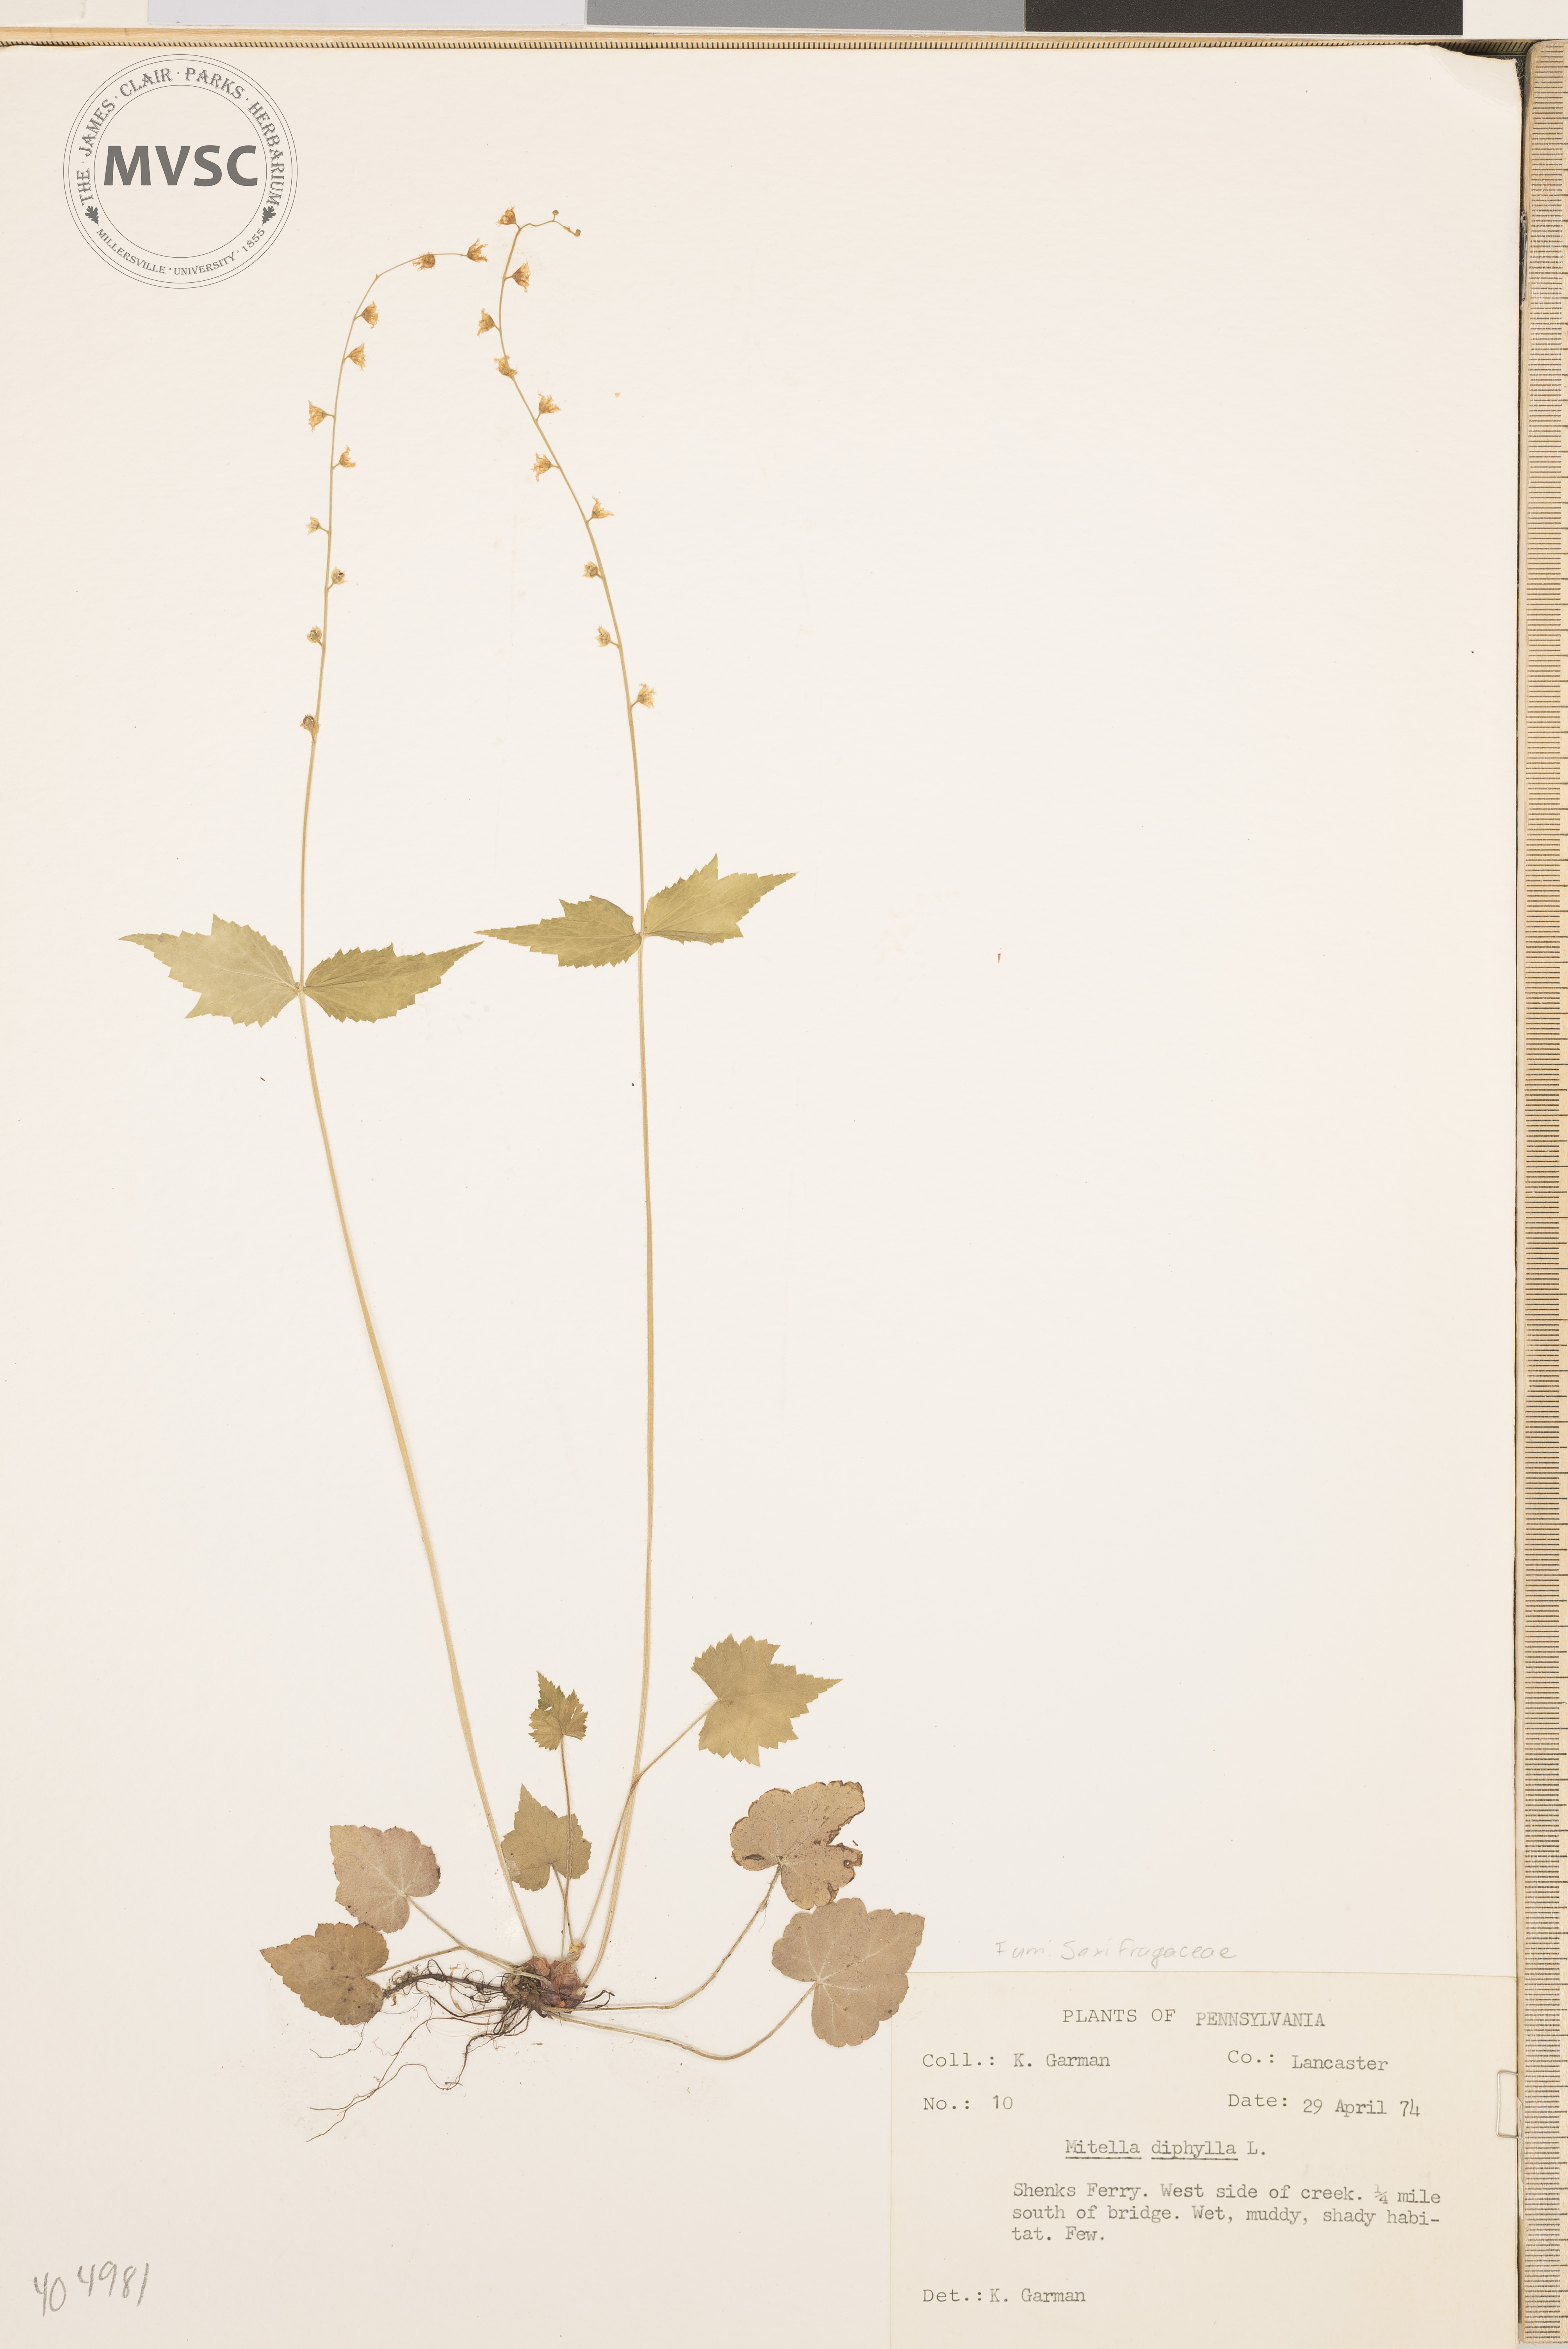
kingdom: Plantae
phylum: Tracheophyta
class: Magnoliopsida
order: Saxifragales
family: Saxifragaceae
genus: Mitella
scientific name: Mitella diphylla
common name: Coolwort
